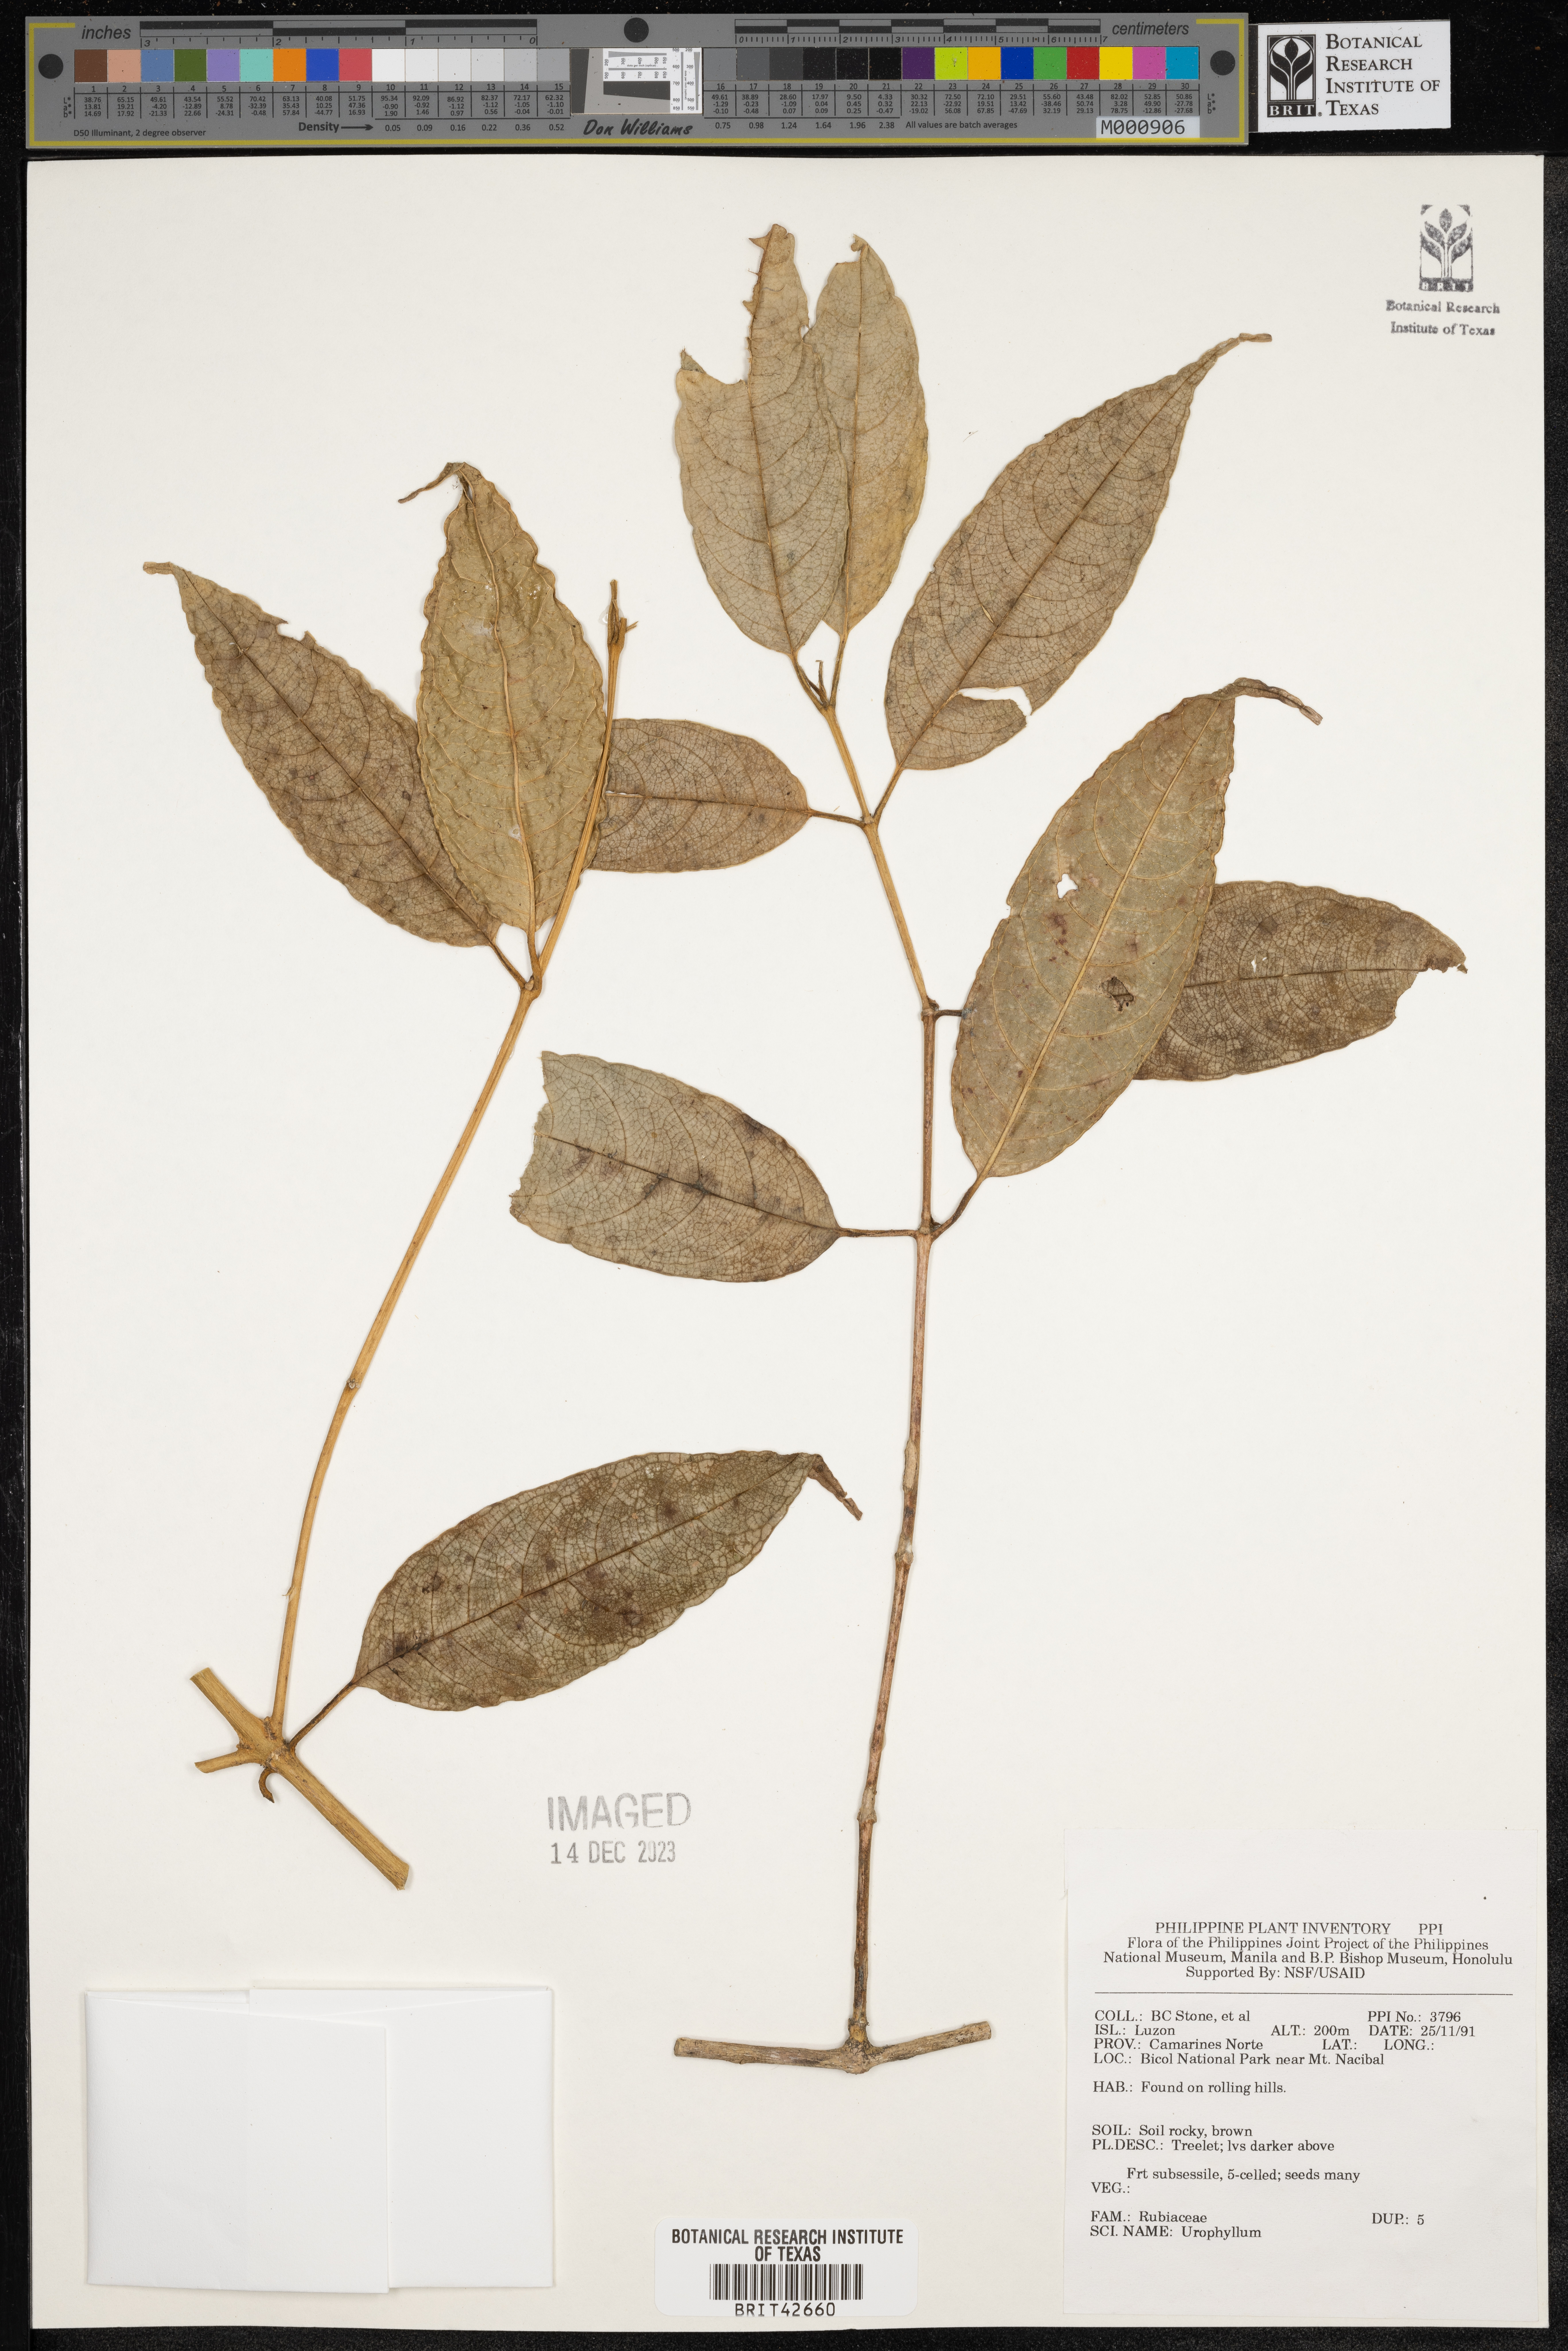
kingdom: Plantae
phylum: Tracheophyta
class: Magnoliopsida
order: Gentianales
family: Rubiaceae
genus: Urophyllum
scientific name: Urophyllum
